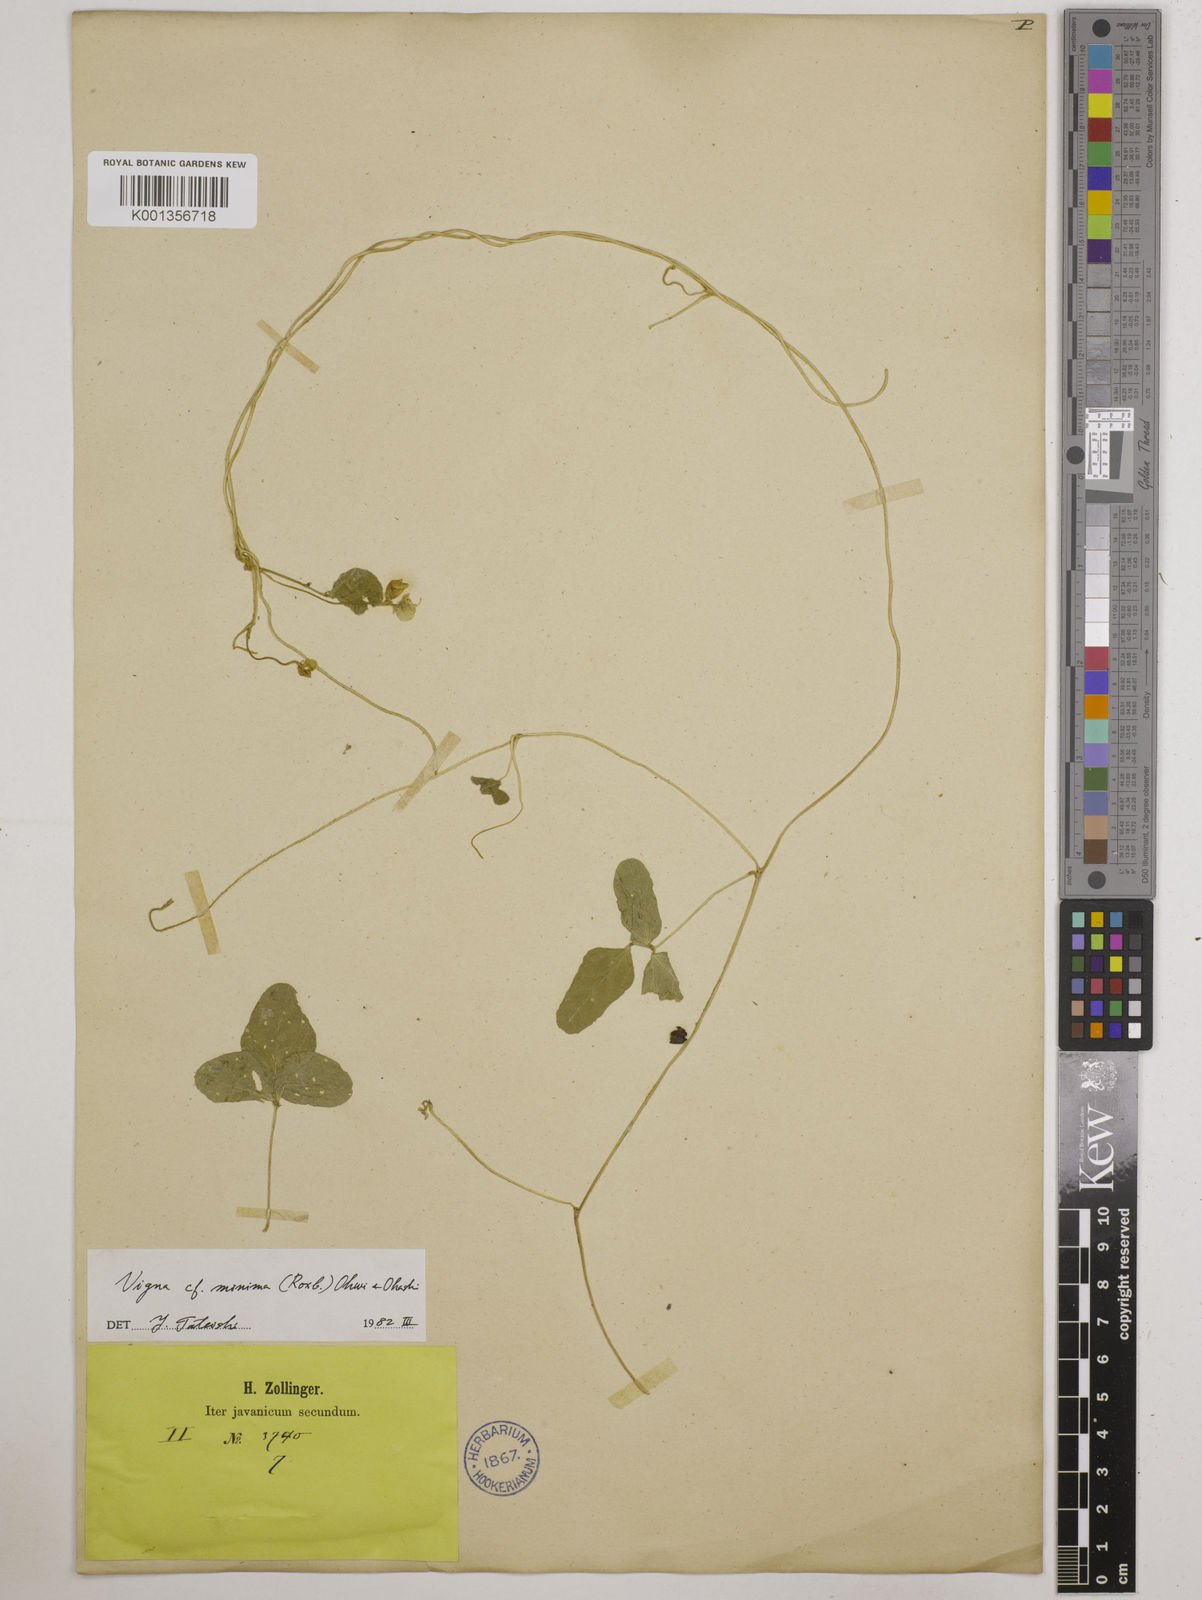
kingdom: Plantae
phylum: Tracheophyta
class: Magnoliopsida
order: Fabales
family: Fabaceae
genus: Vigna
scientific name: Vigna minima
